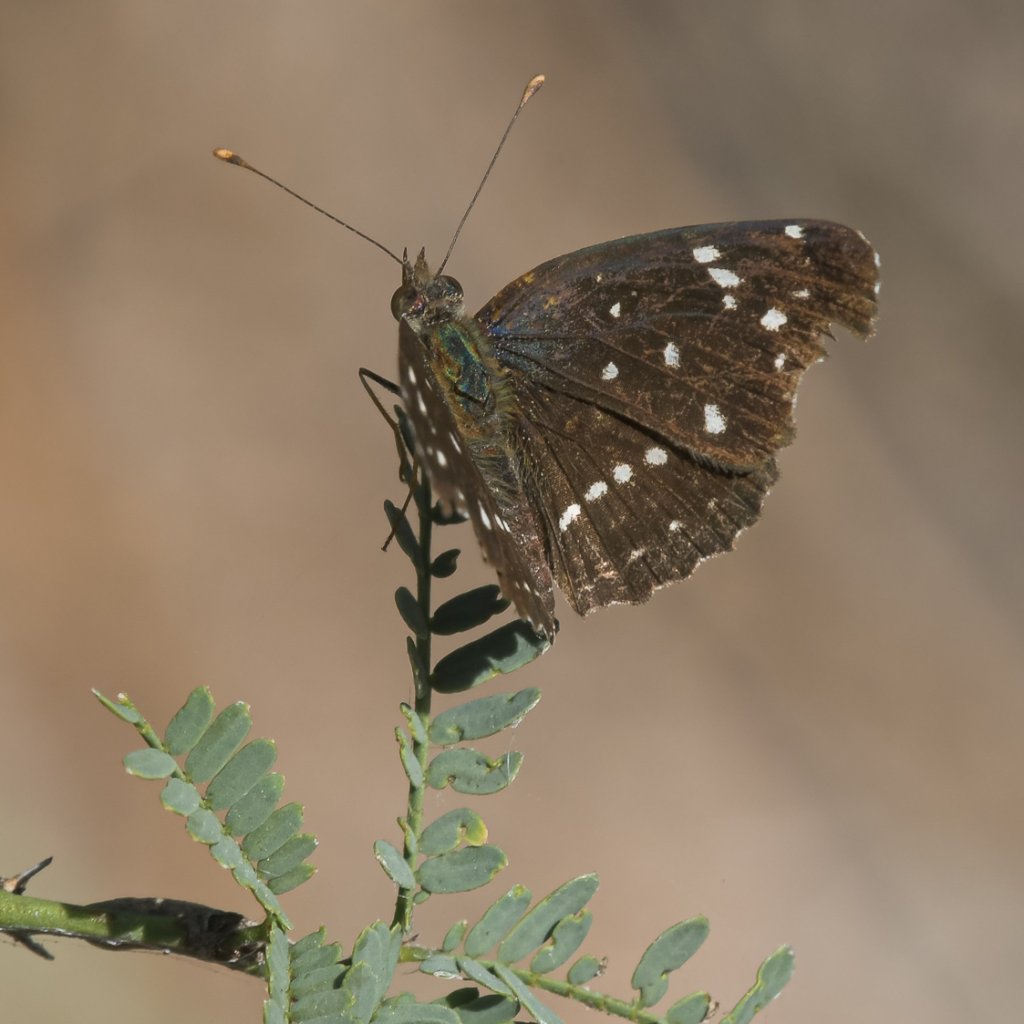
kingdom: Animalia
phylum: Arthropoda
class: Insecta
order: Lepidoptera
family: Nymphalidae
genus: Anthanassa
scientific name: Anthanassa texana
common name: Texan Crescent
